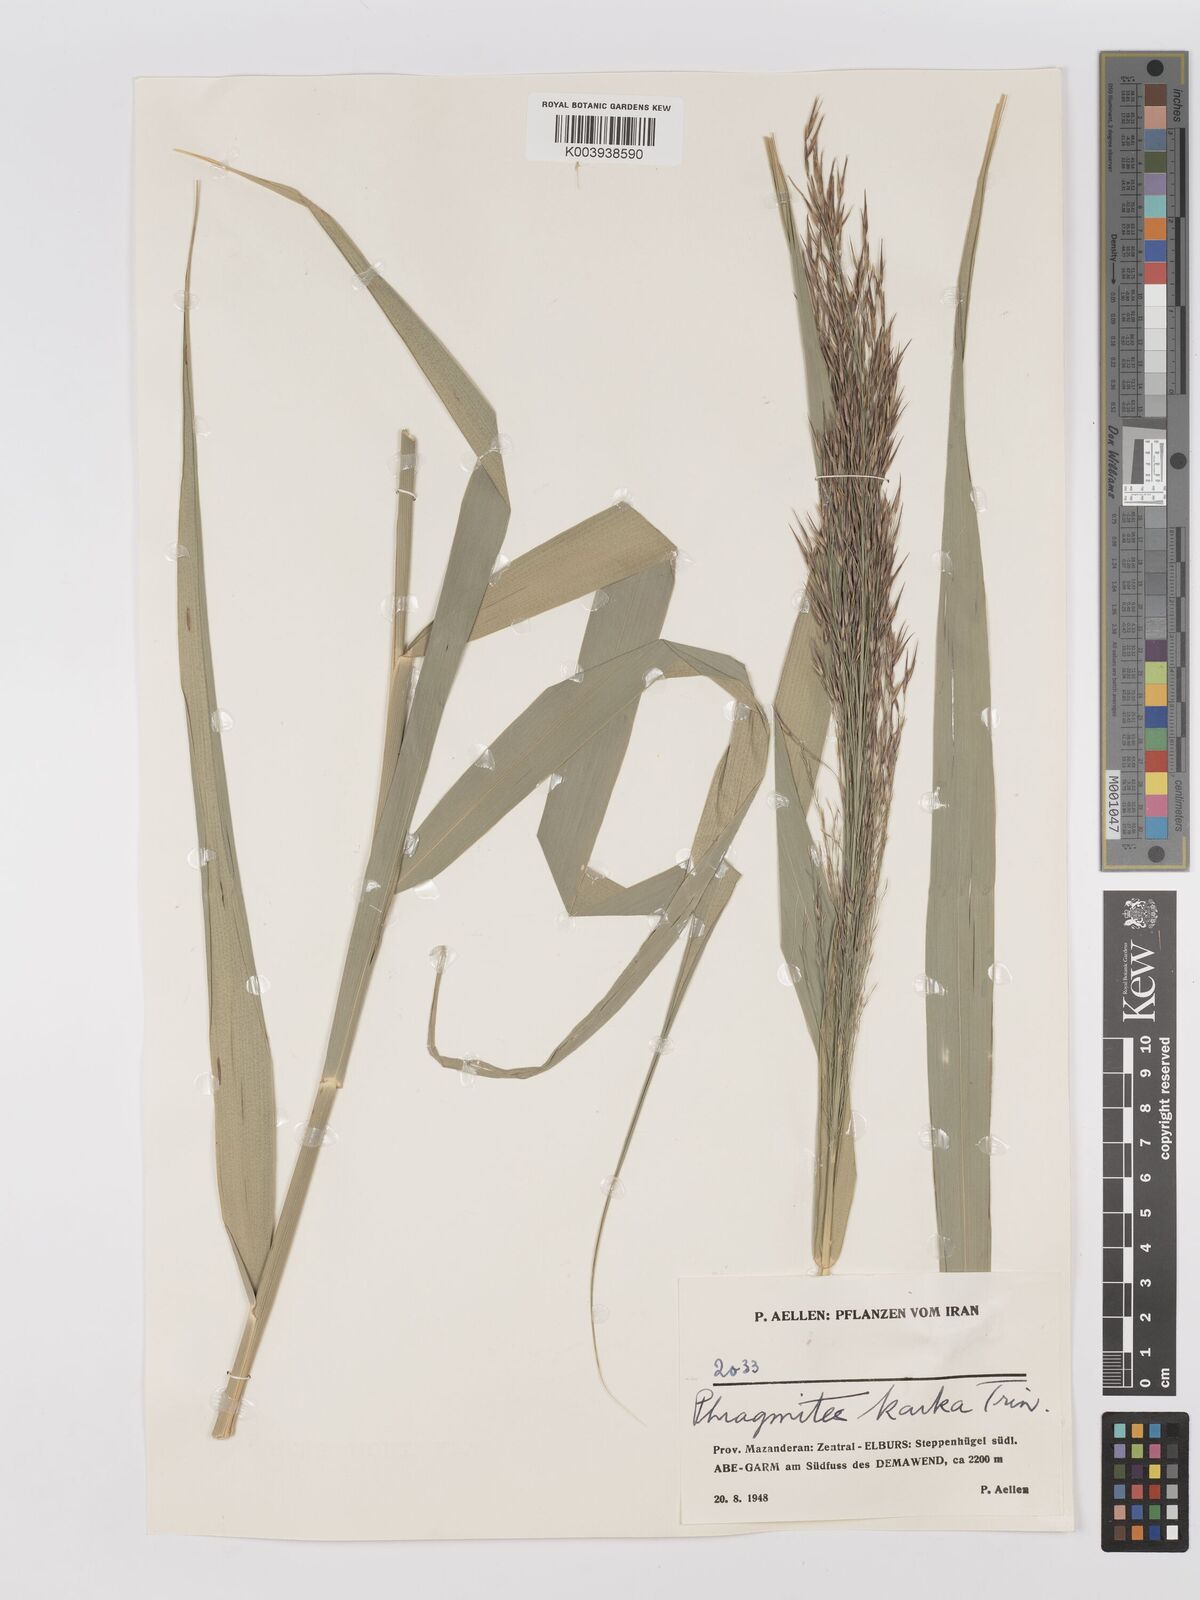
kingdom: Plantae
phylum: Tracheophyta
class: Liliopsida
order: Poales
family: Poaceae
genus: Phragmites
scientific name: Phragmites karka
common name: Tropical reed
